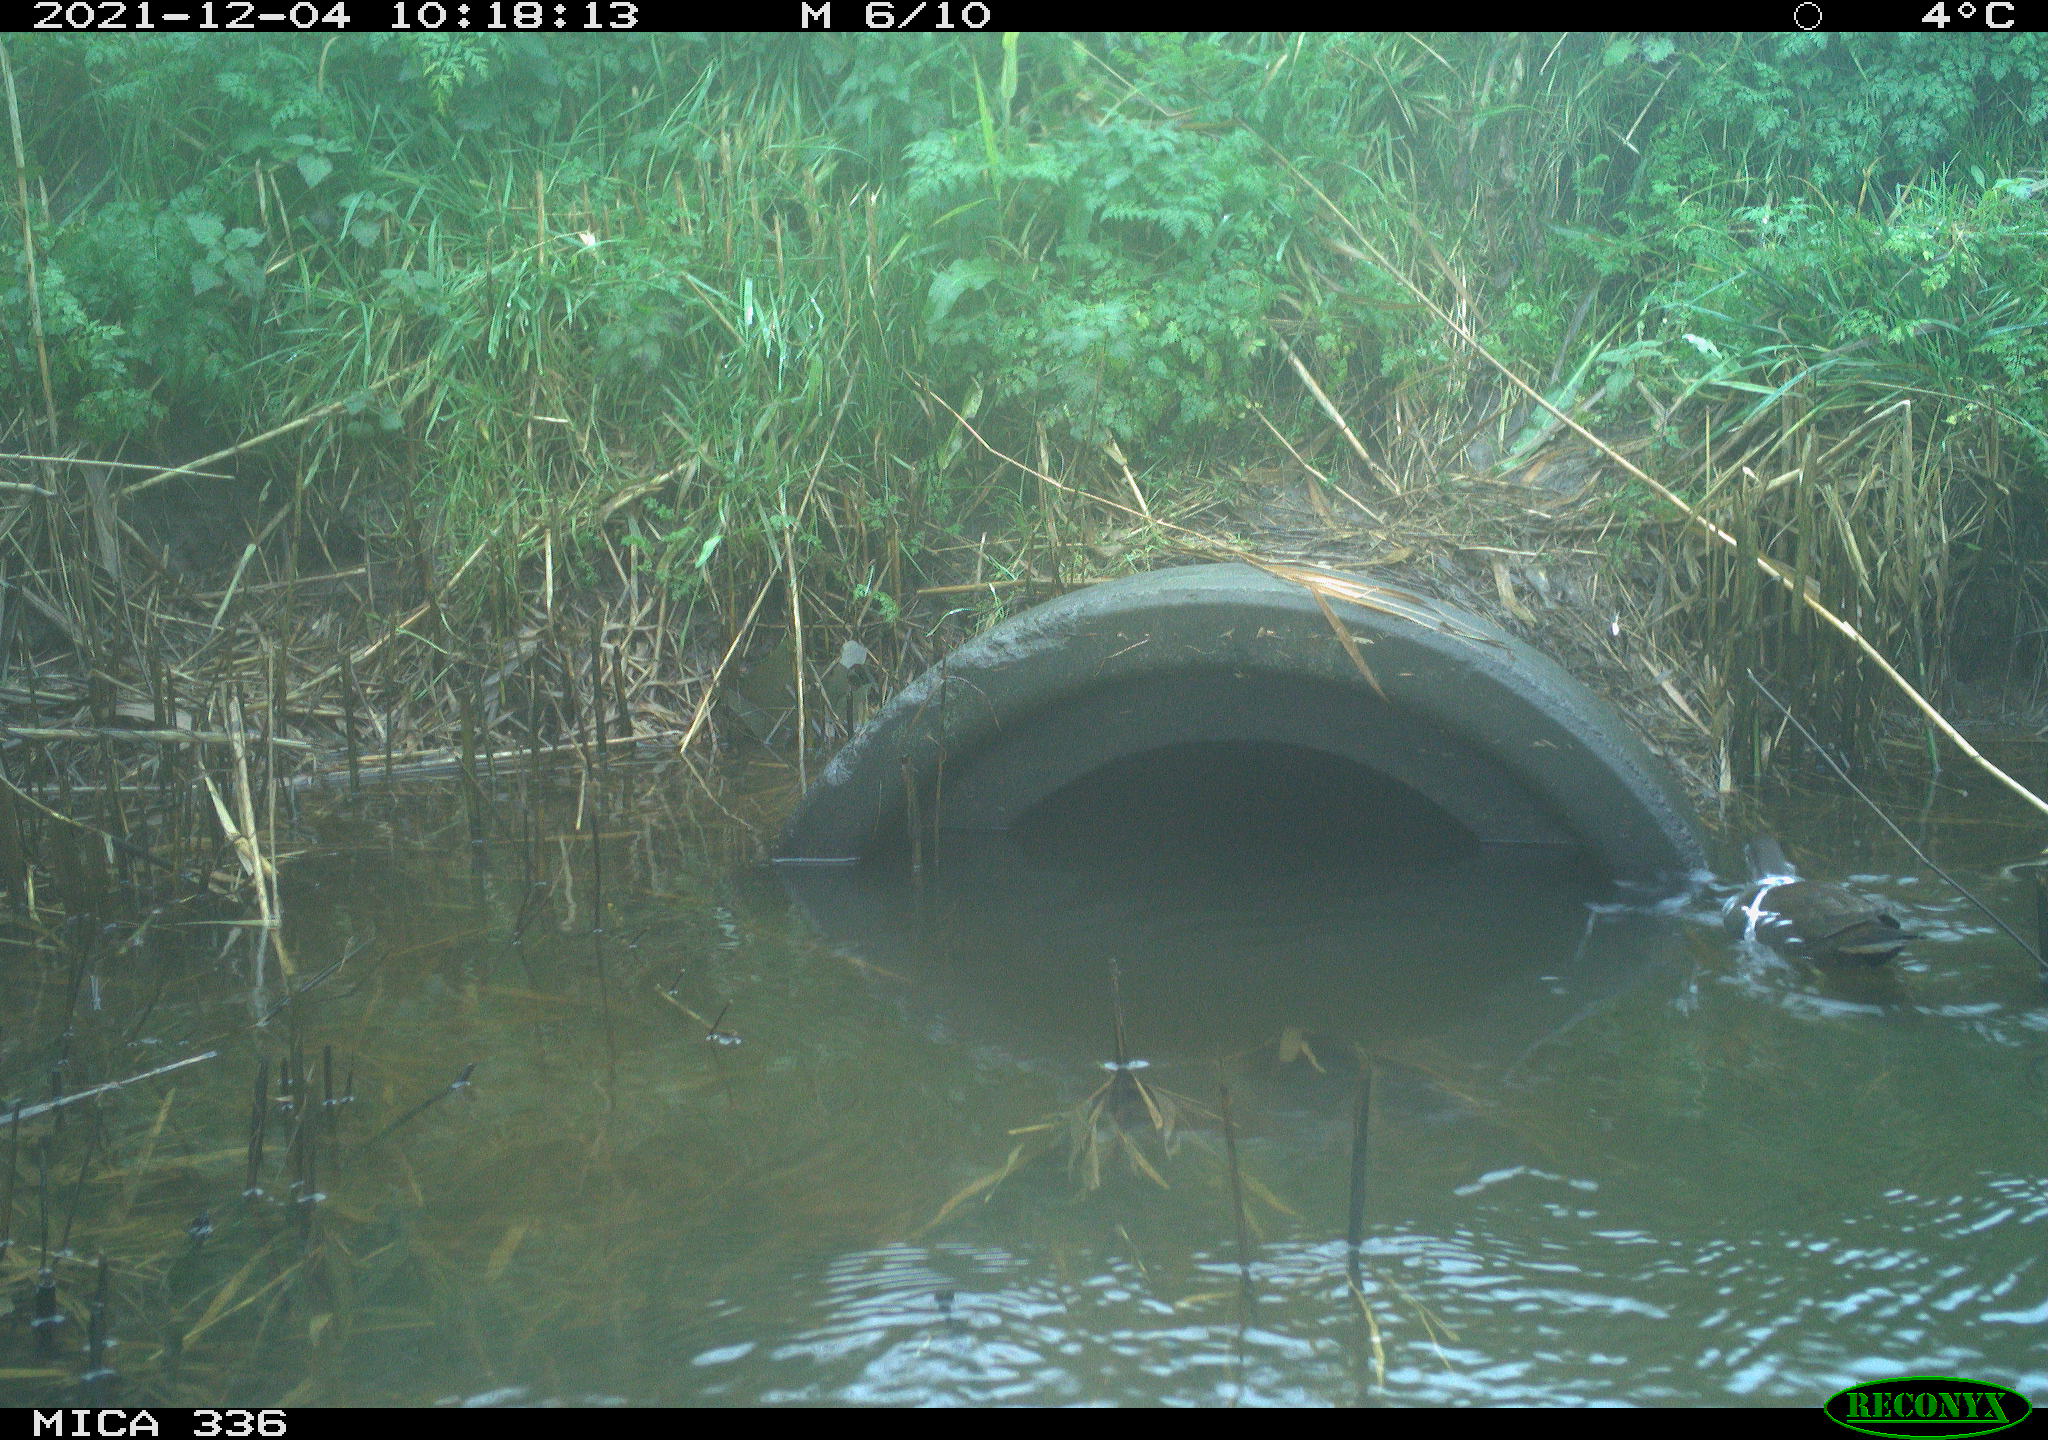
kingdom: Animalia
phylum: Chordata
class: Aves
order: Gruiformes
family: Rallidae
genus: Gallinula
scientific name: Gallinula chloropus
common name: Common moorhen
